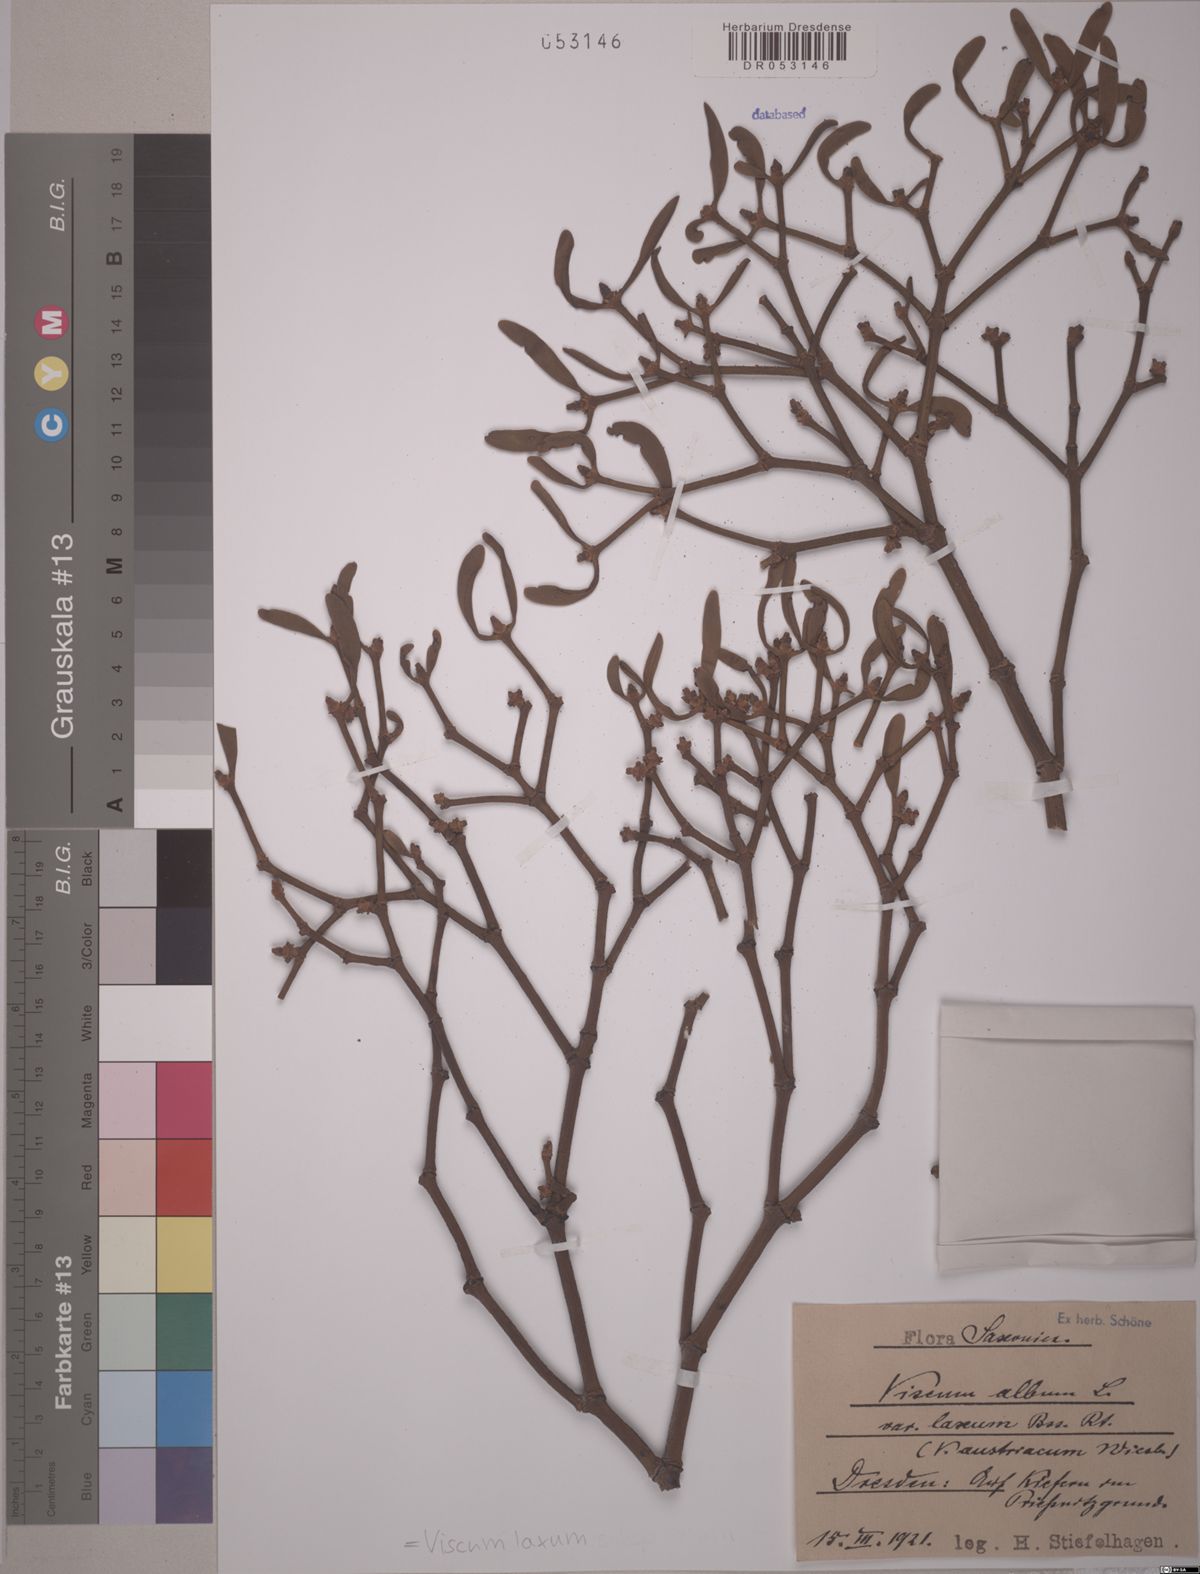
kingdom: Plantae
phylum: Tracheophyta
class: Magnoliopsida
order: Santalales
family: Viscaceae
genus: Viscum
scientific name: Viscum laxum
